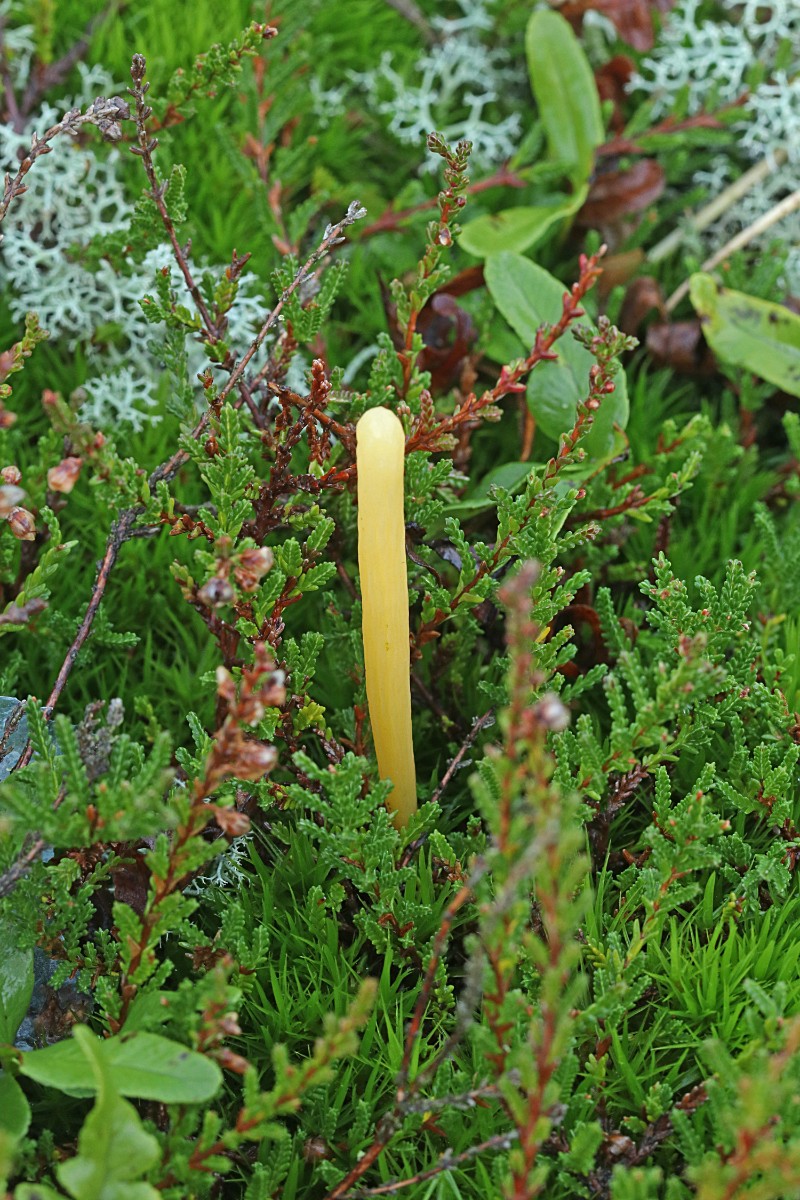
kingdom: Fungi
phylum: Basidiomycota
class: Agaricomycetes
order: Agaricales
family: Clavariaceae
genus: Clavaria
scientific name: Clavaria argillacea
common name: lerfarvet køllesvamp
